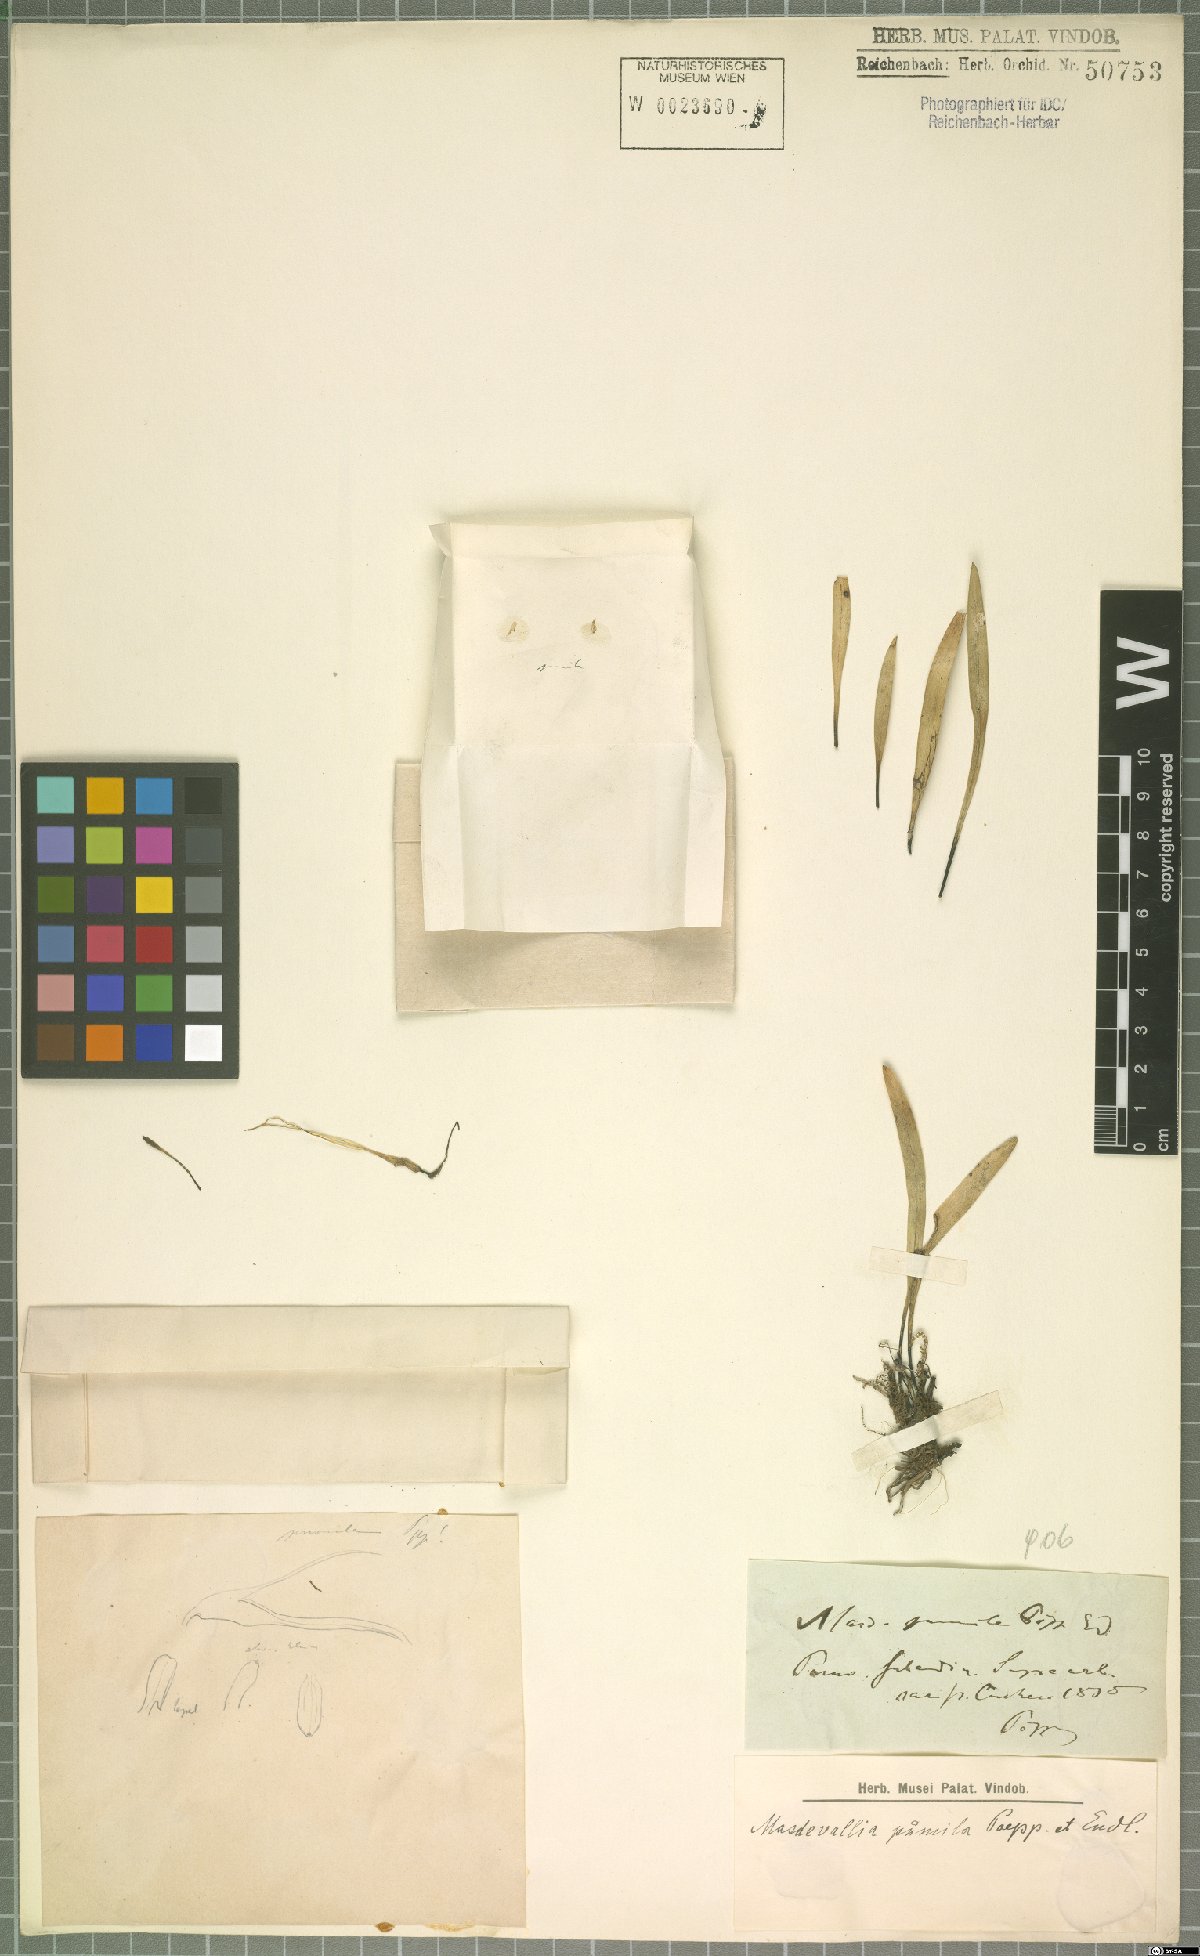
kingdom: Plantae
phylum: Tracheophyta
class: Liliopsida
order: Asparagales
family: Orchidaceae
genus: Masdevallia
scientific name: Masdevallia pumila
